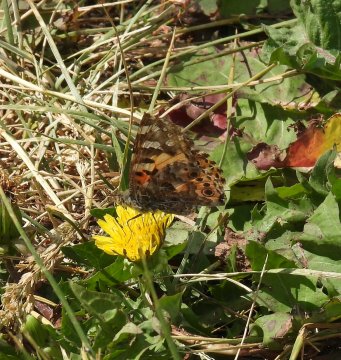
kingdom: Animalia
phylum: Arthropoda
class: Insecta
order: Lepidoptera
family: Nymphalidae
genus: Vanessa
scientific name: Vanessa cardui
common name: Painted Lady
